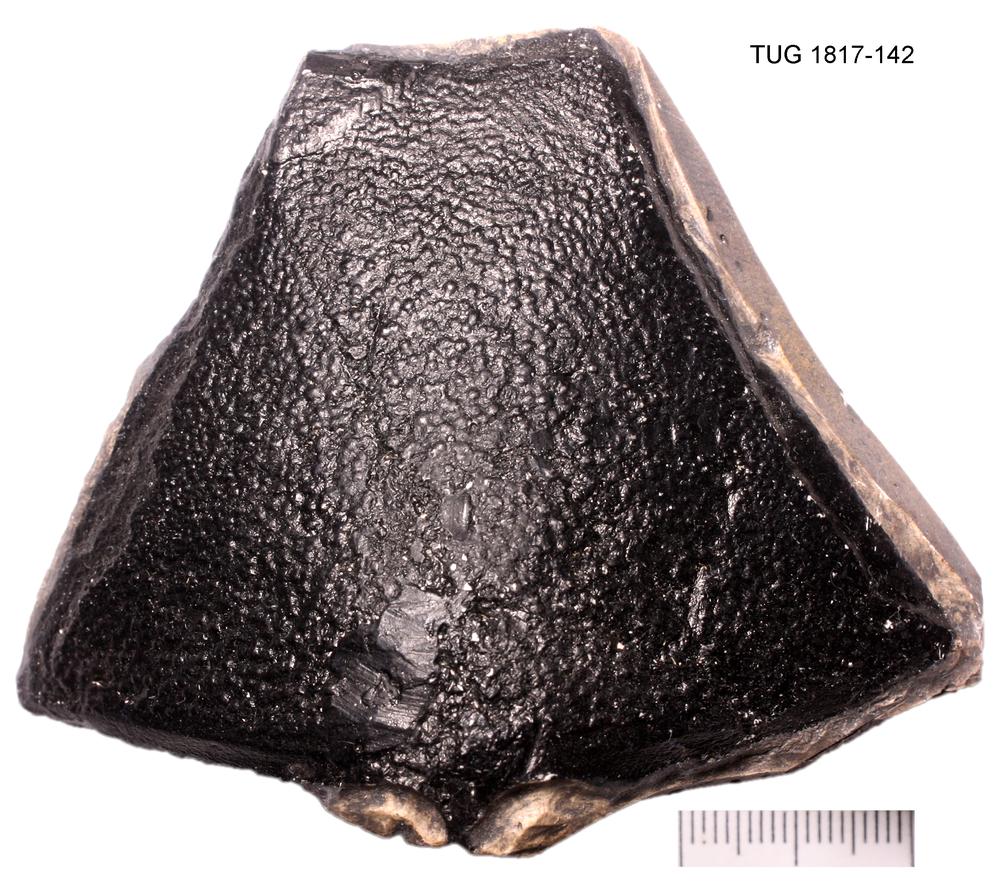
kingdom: Animalia
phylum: Chordata
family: Coccosteidae
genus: Watsonosteus
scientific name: Watsonosteus fletti
